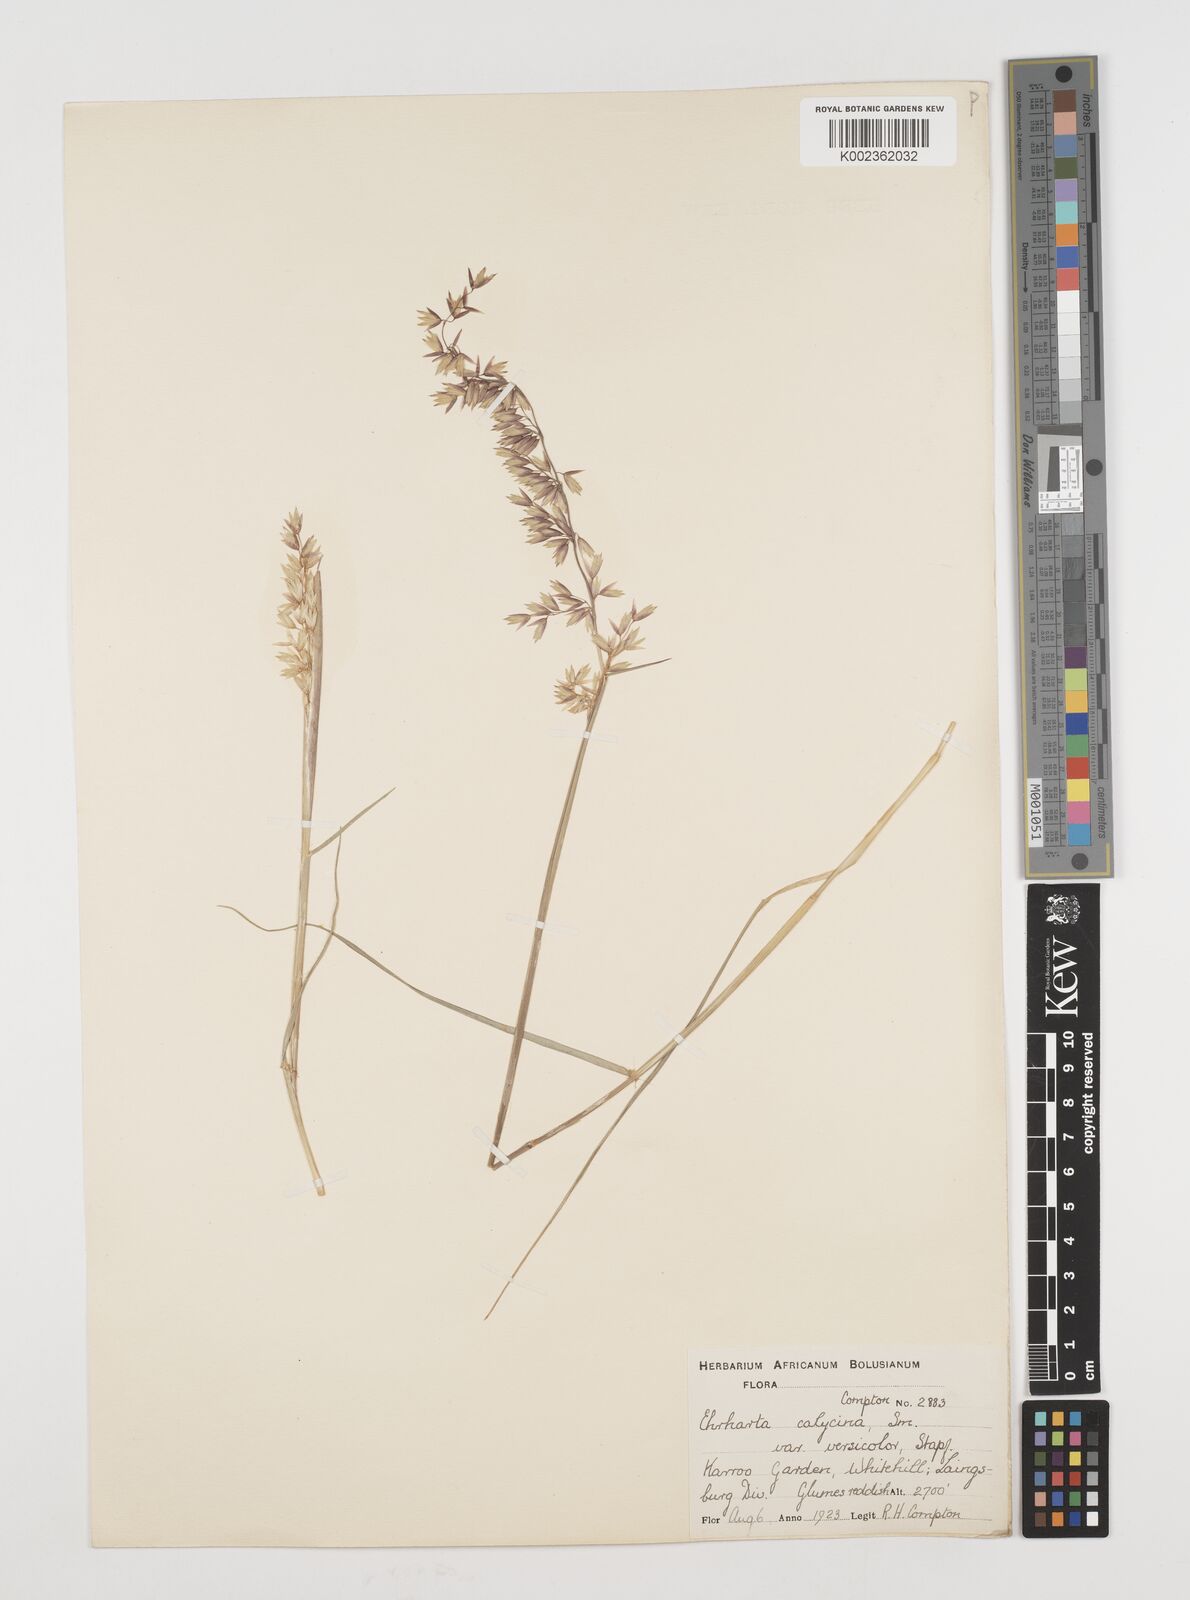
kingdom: Plantae
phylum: Tracheophyta
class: Liliopsida
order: Poales
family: Poaceae
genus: Ehrharta
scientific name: Ehrharta calycina
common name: Perennial veldtgrass
